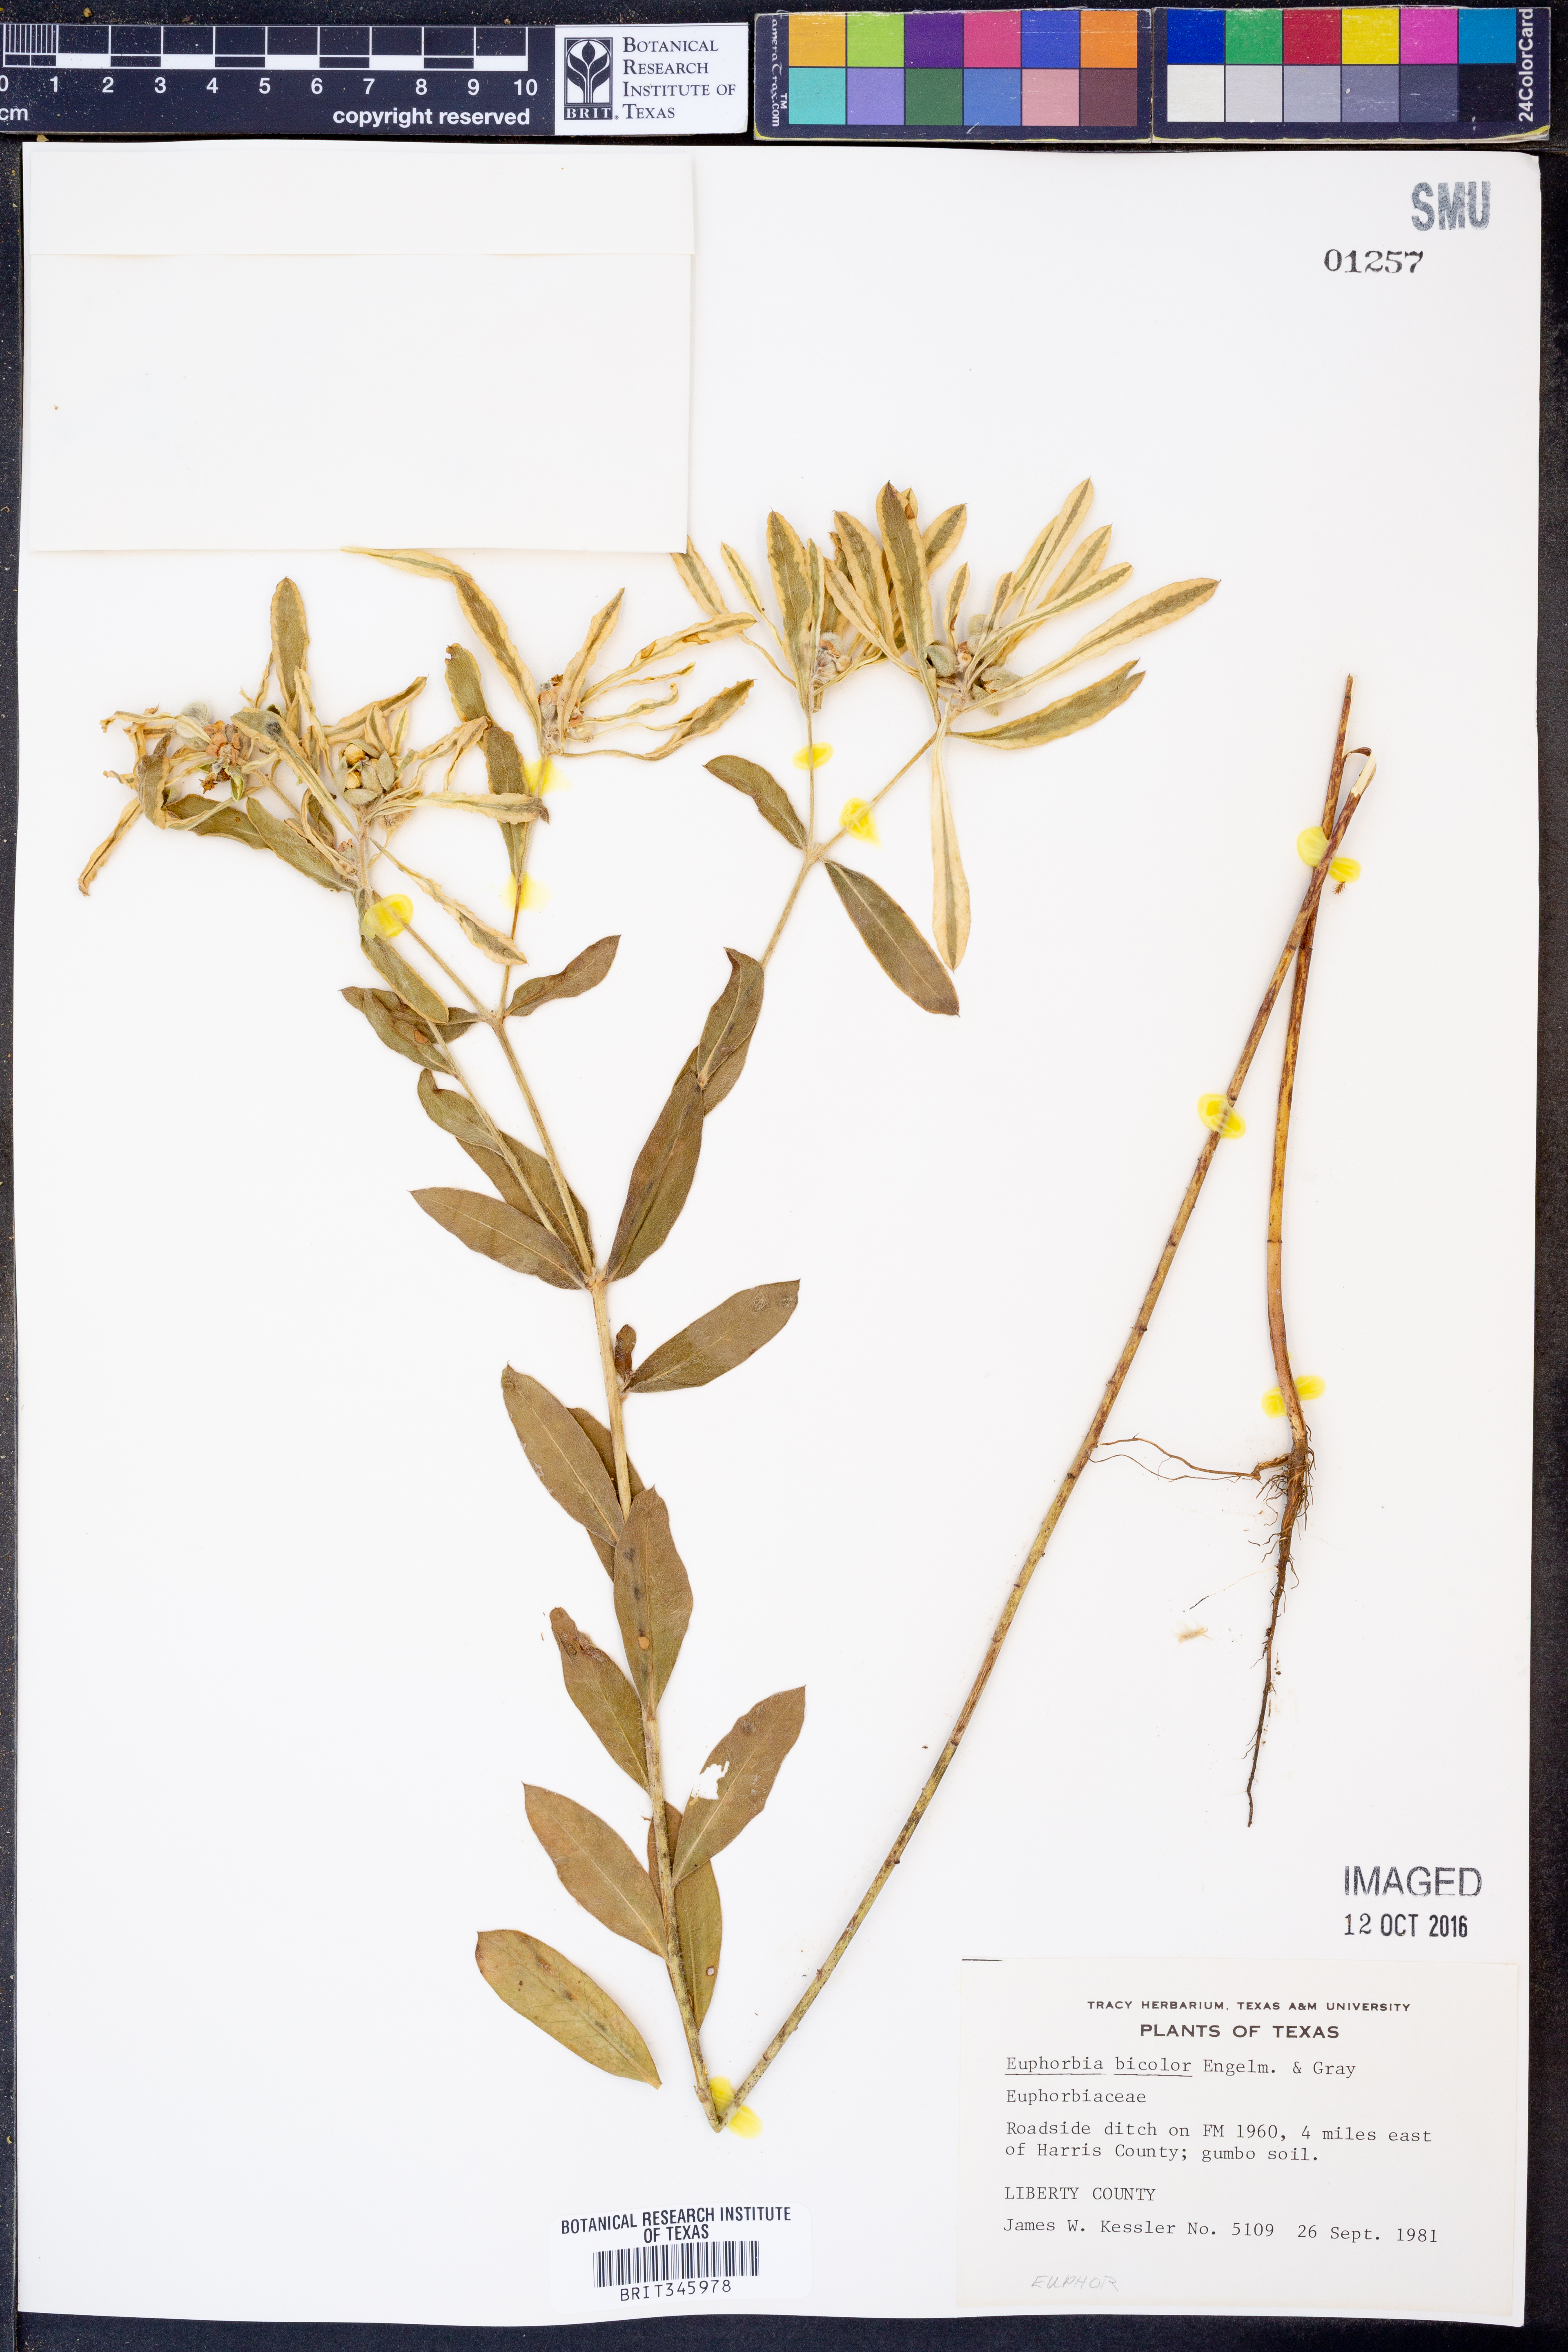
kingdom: Plantae
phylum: Tracheophyta
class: Magnoliopsida
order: Malpighiales
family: Euphorbiaceae
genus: Euphorbia
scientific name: Euphorbia bicolor
